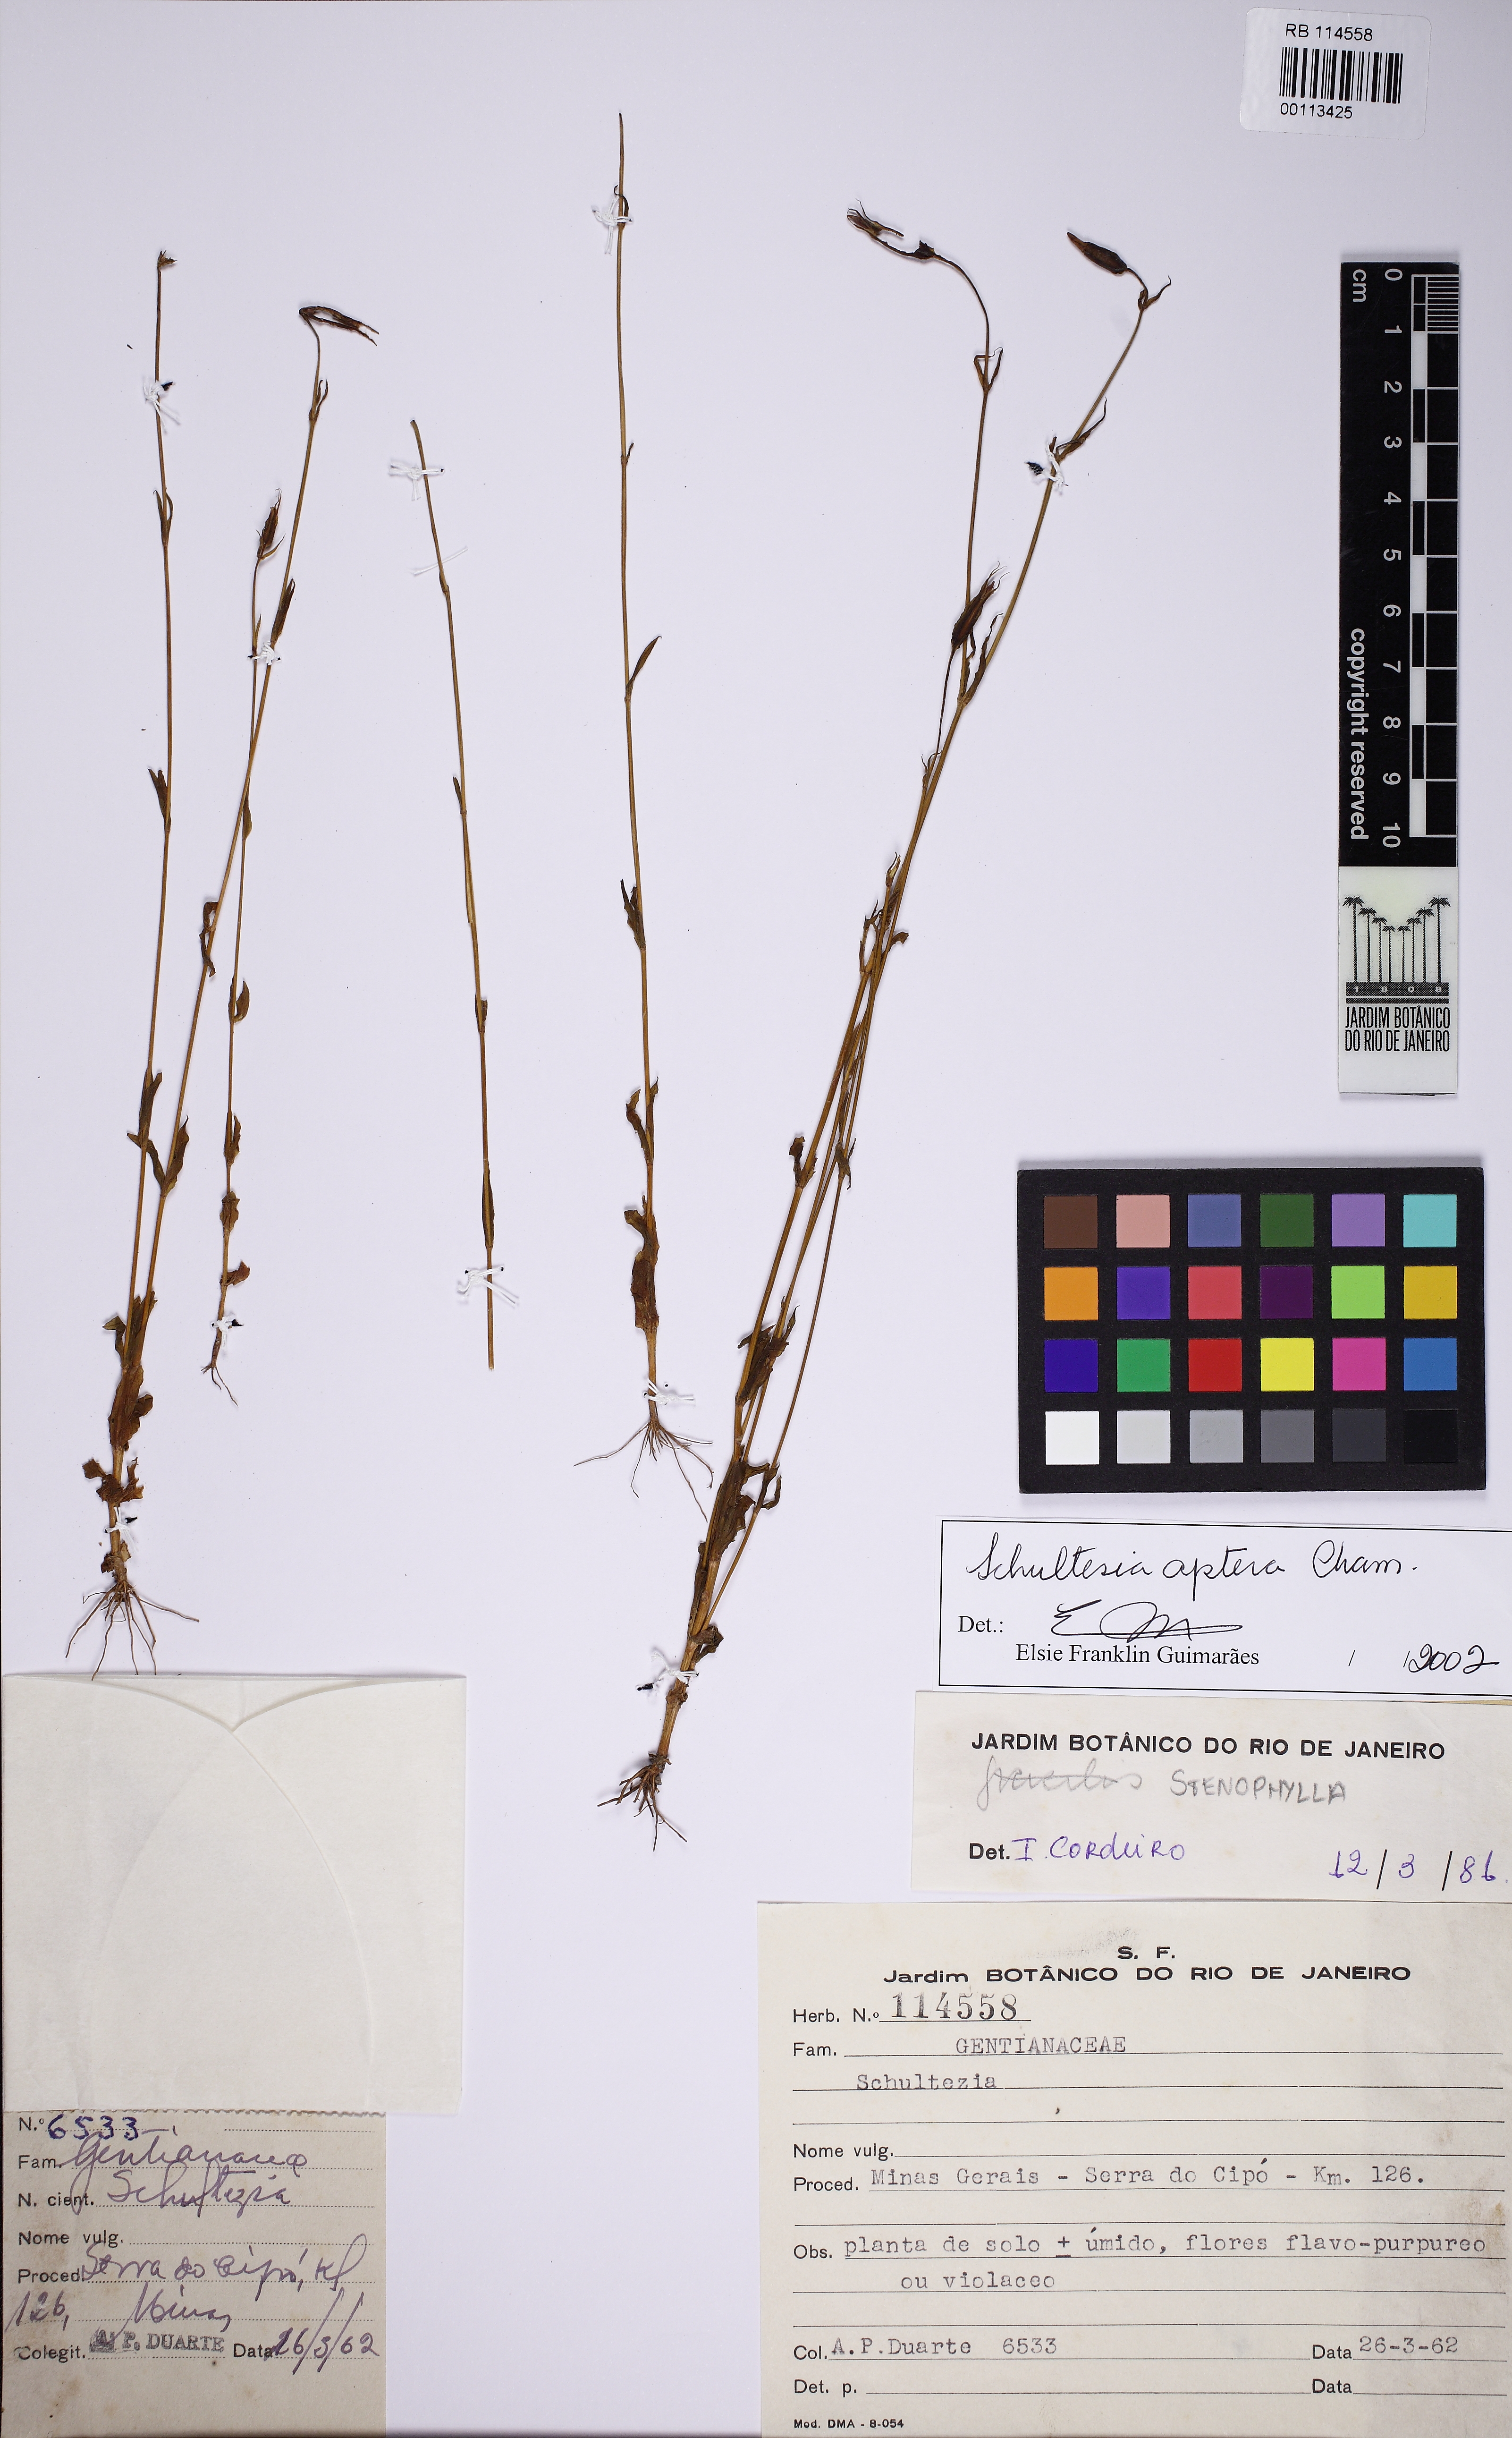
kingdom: Plantae
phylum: Tracheophyta
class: Magnoliopsida
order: Gentianales
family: Gentianaceae
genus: Schultesia
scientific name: Schultesia aptera
